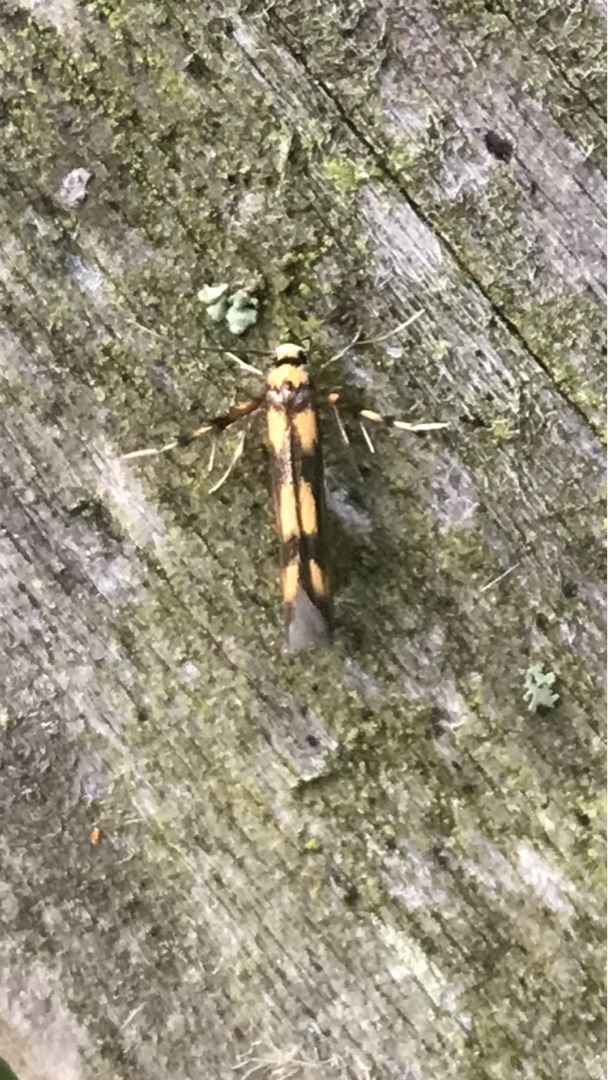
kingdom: Animalia
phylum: Arthropoda
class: Insecta
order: Lepidoptera
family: Stathmopodidae
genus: Stathmopoda
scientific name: Stathmopoda pedella
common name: Strittende ellemøl
